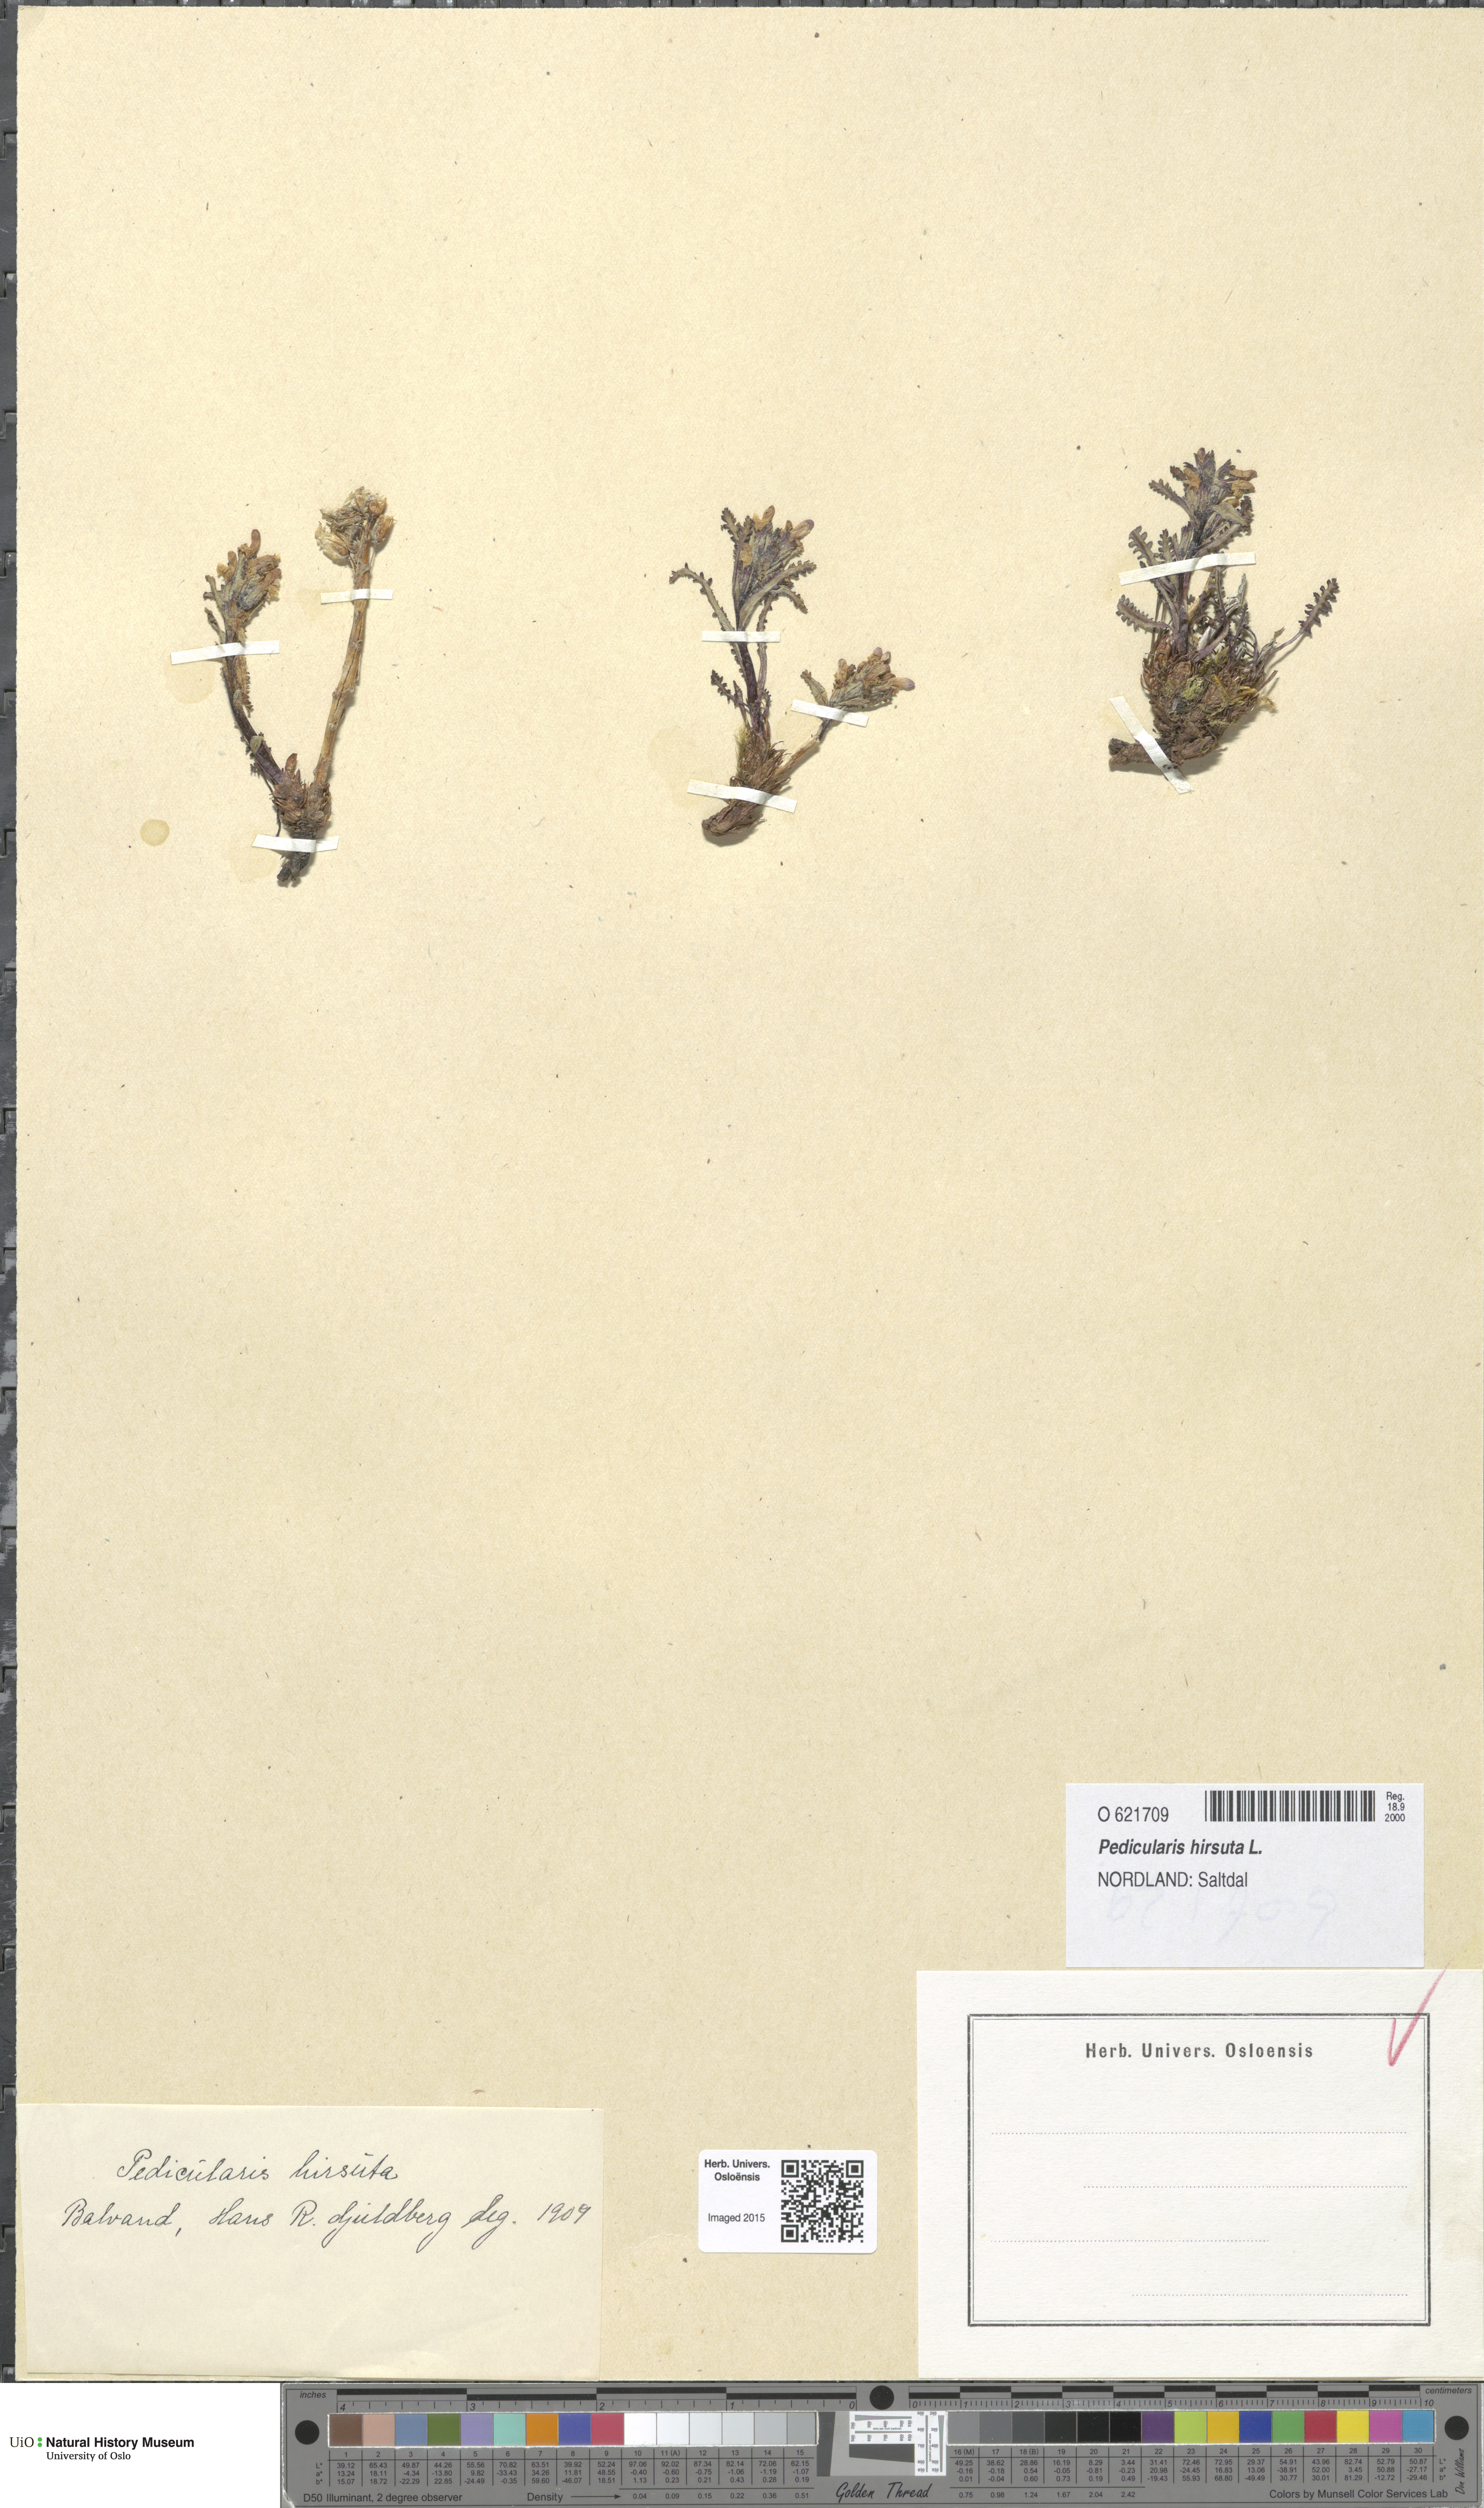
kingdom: Plantae
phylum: Tracheophyta
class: Magnoliopsida
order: Lamiales
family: Orobanchaceae
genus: Pedicularis
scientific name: Pedicularis hirsuta
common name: Hairy lousewort
